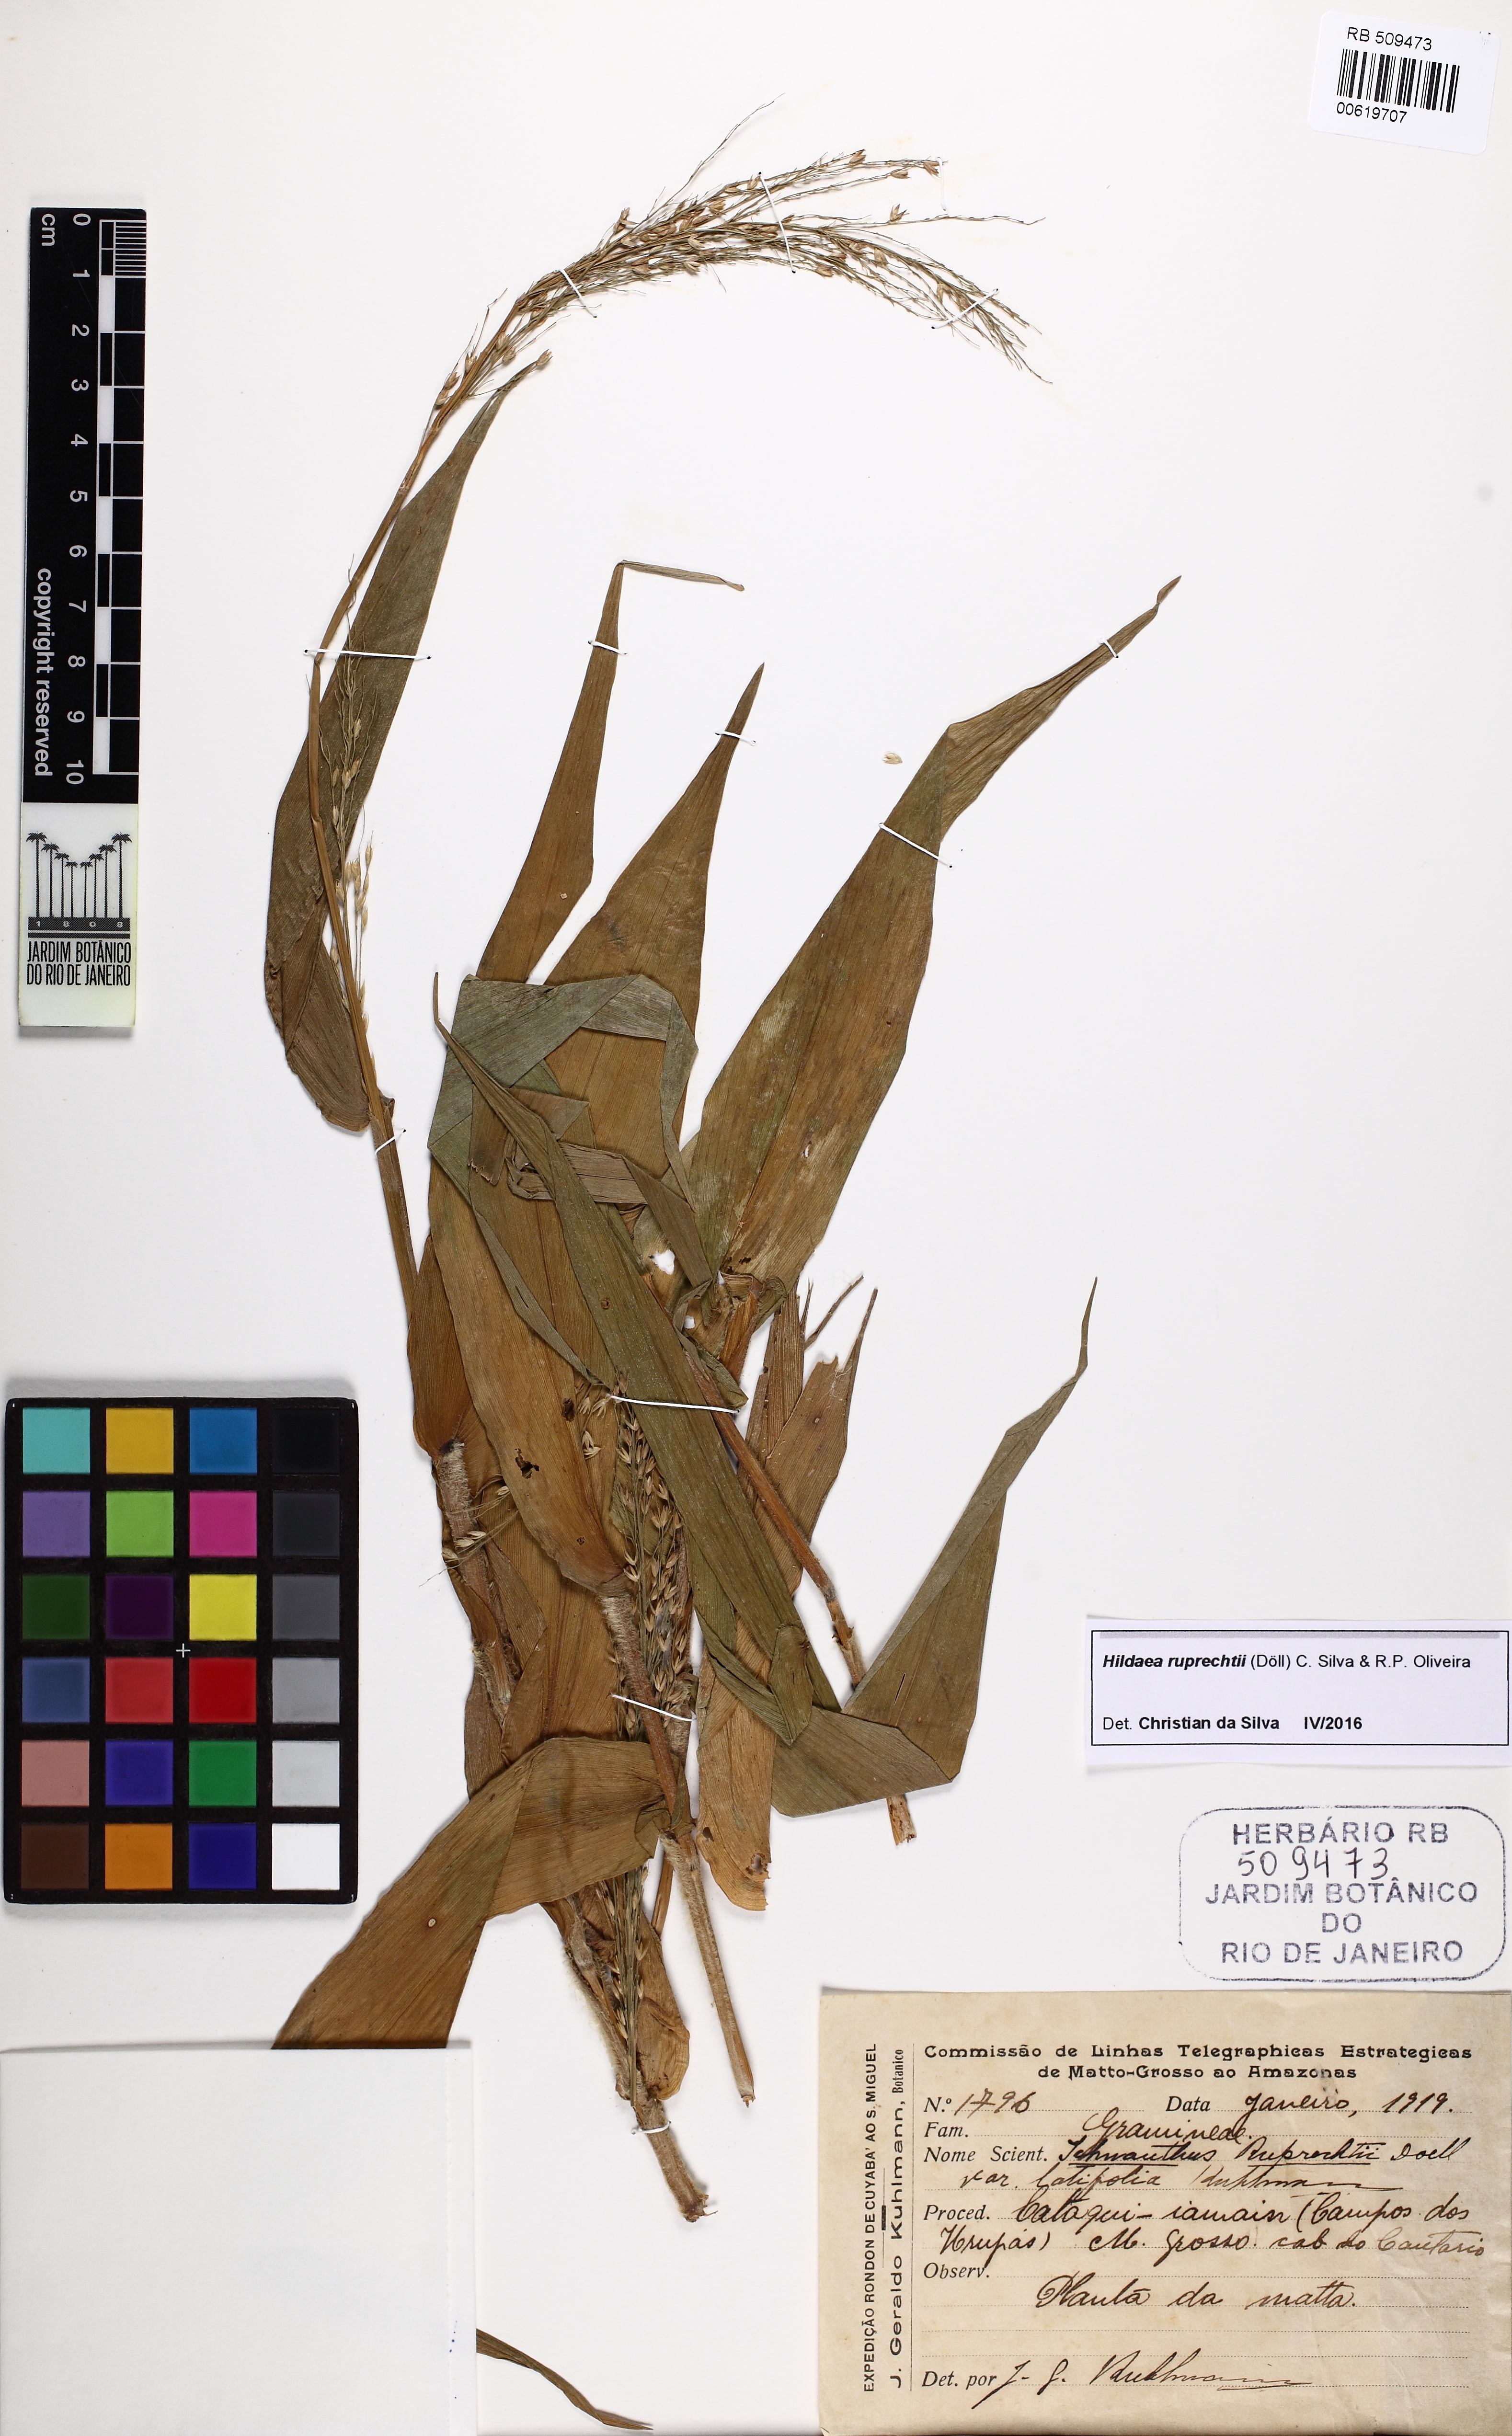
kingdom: Plantae
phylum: Tracheophyta
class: Liliopsida
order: Poales
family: Poaceae
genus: Ichnanthus
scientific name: Ichnanthus ruprechtii
